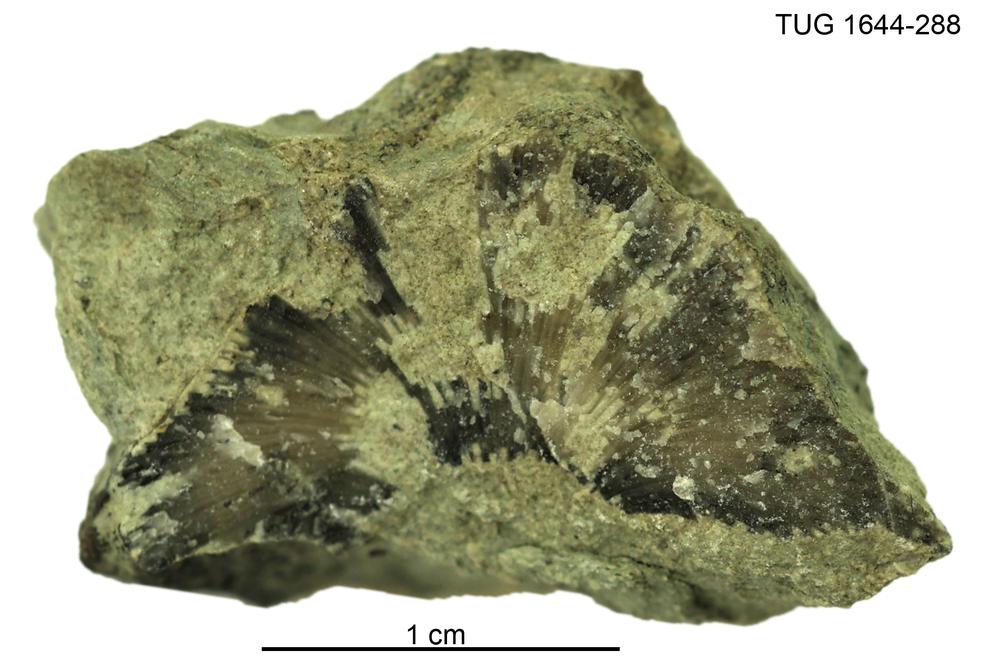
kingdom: Animalia
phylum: Bryozoa
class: Stenolaemata
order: Trepostomatida
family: Diplotrypidae
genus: Diplotrypa
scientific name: Diplotrypa
